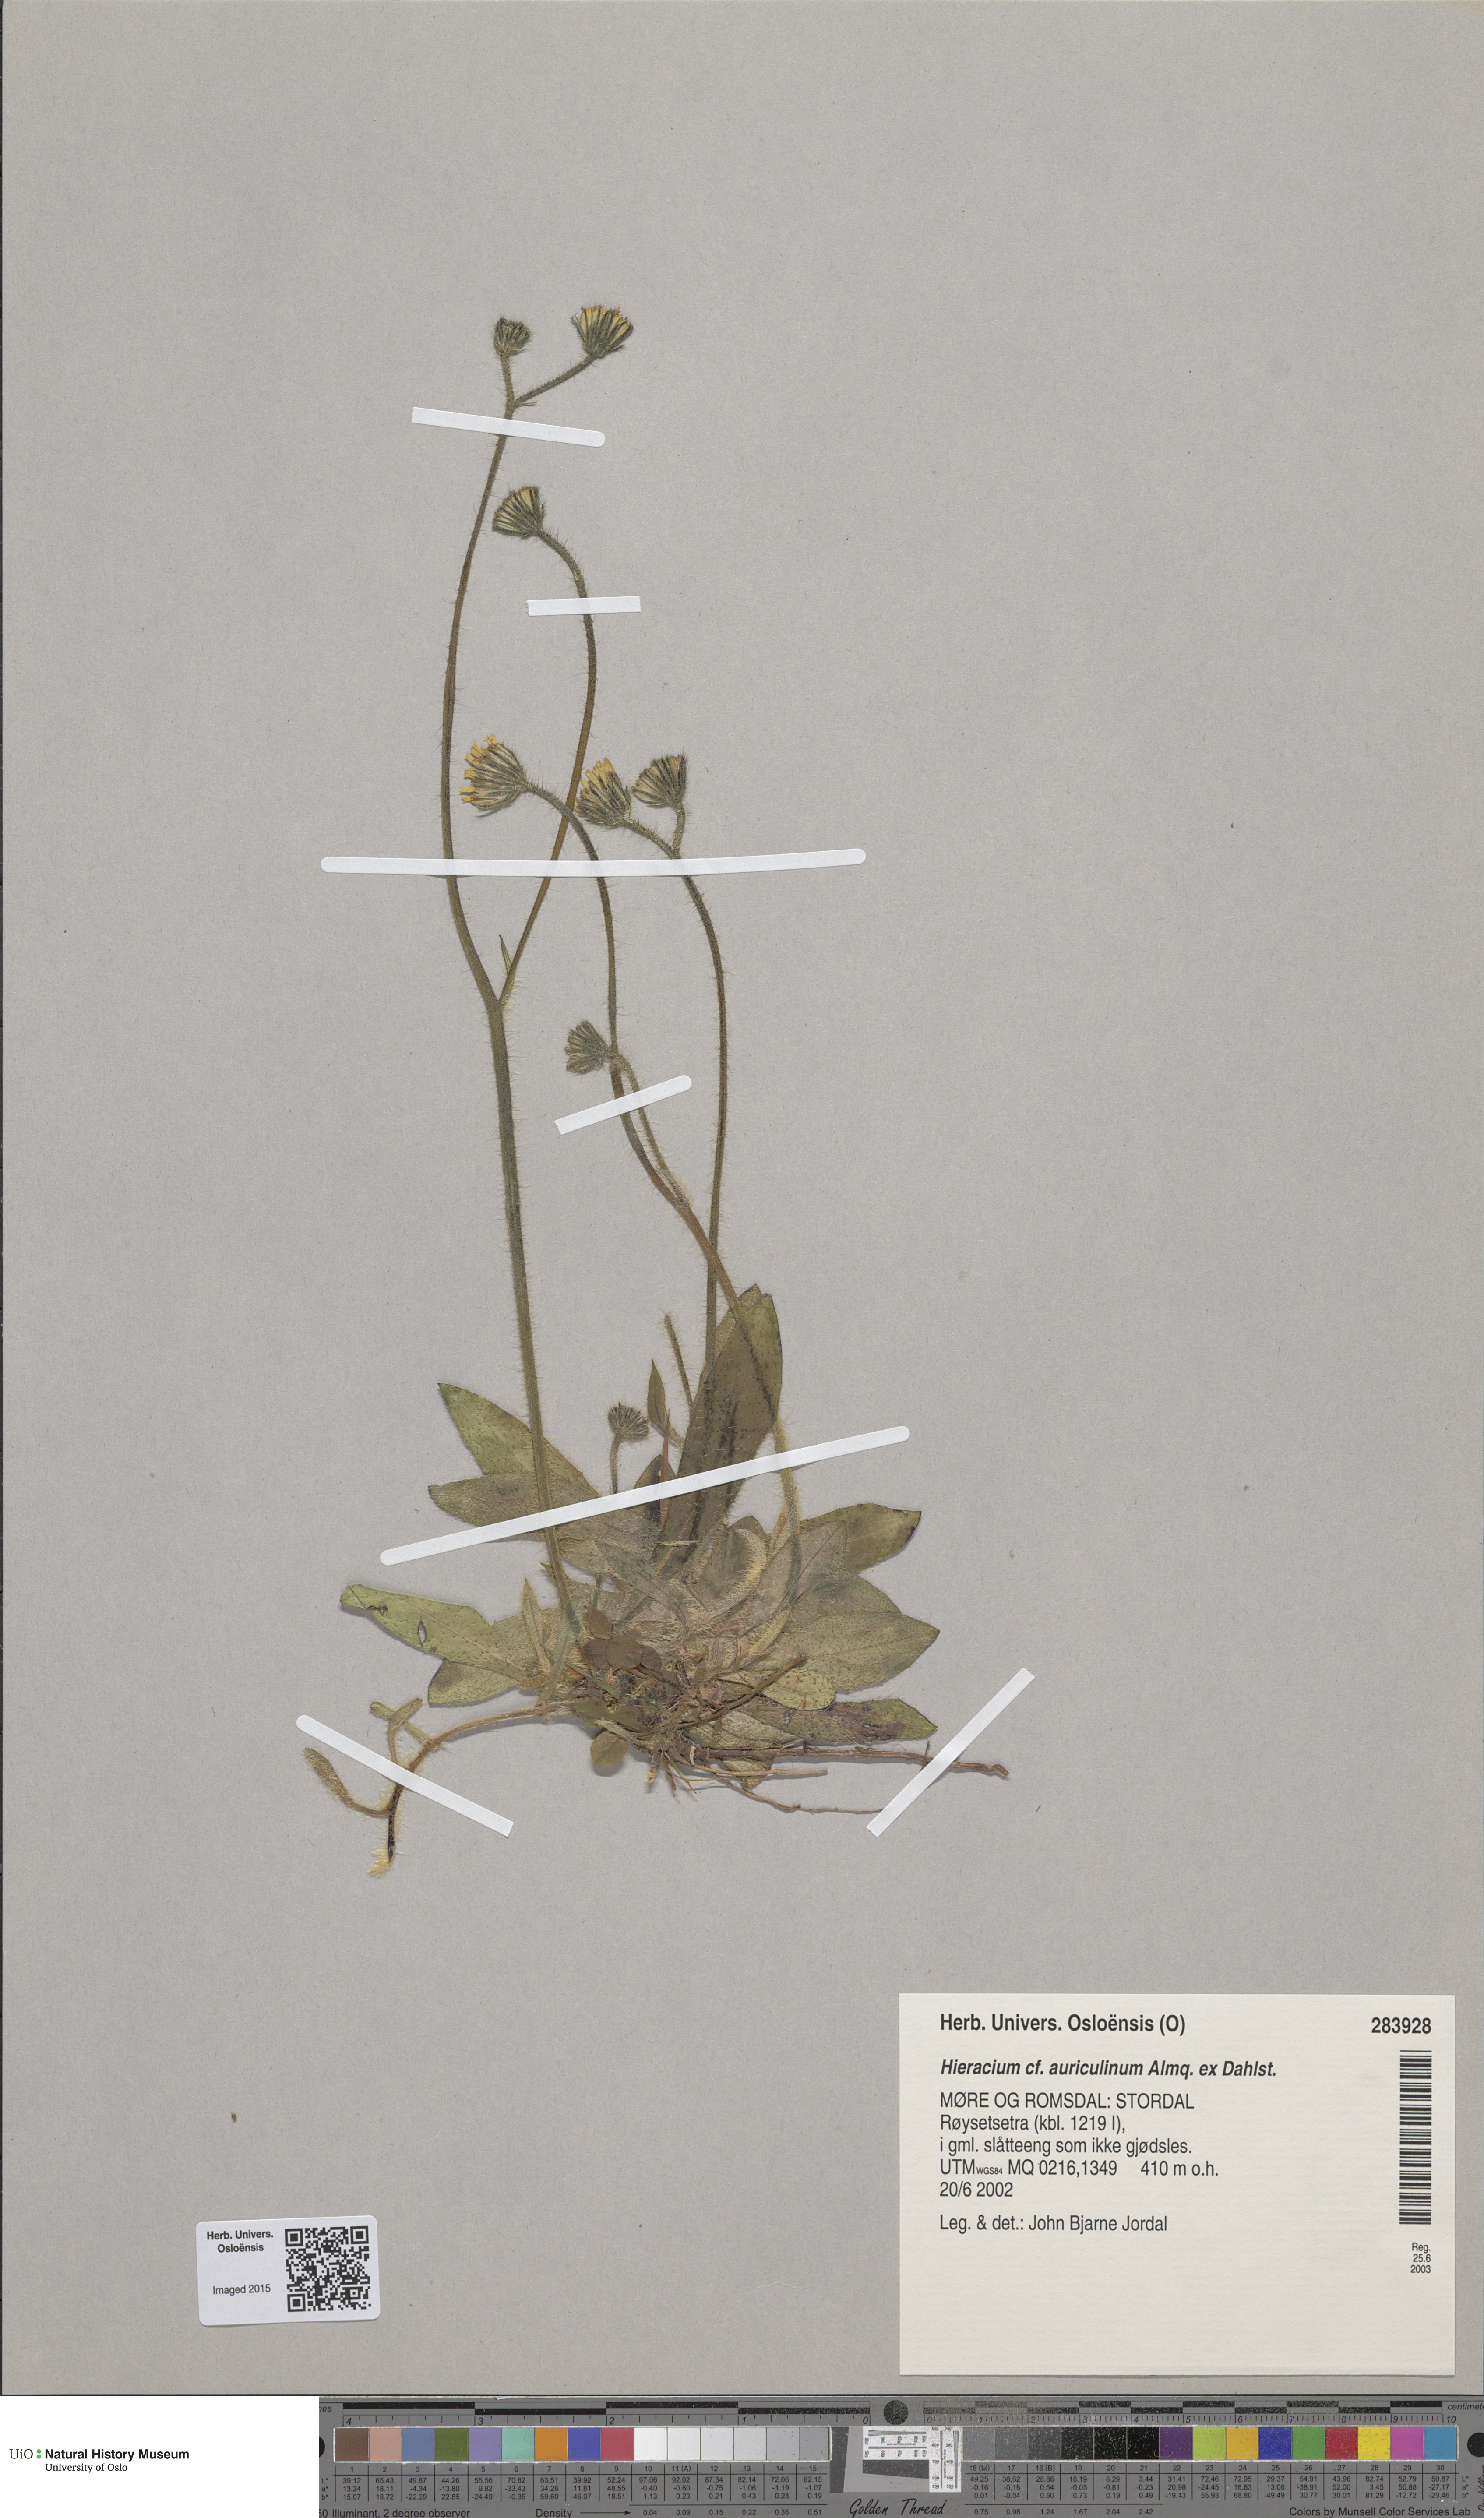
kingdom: Plantae
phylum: Tracheophyta
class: Magnoliopsida
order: Asterales
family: Asteraceae
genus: Pilosella
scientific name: Pilosella dubia
